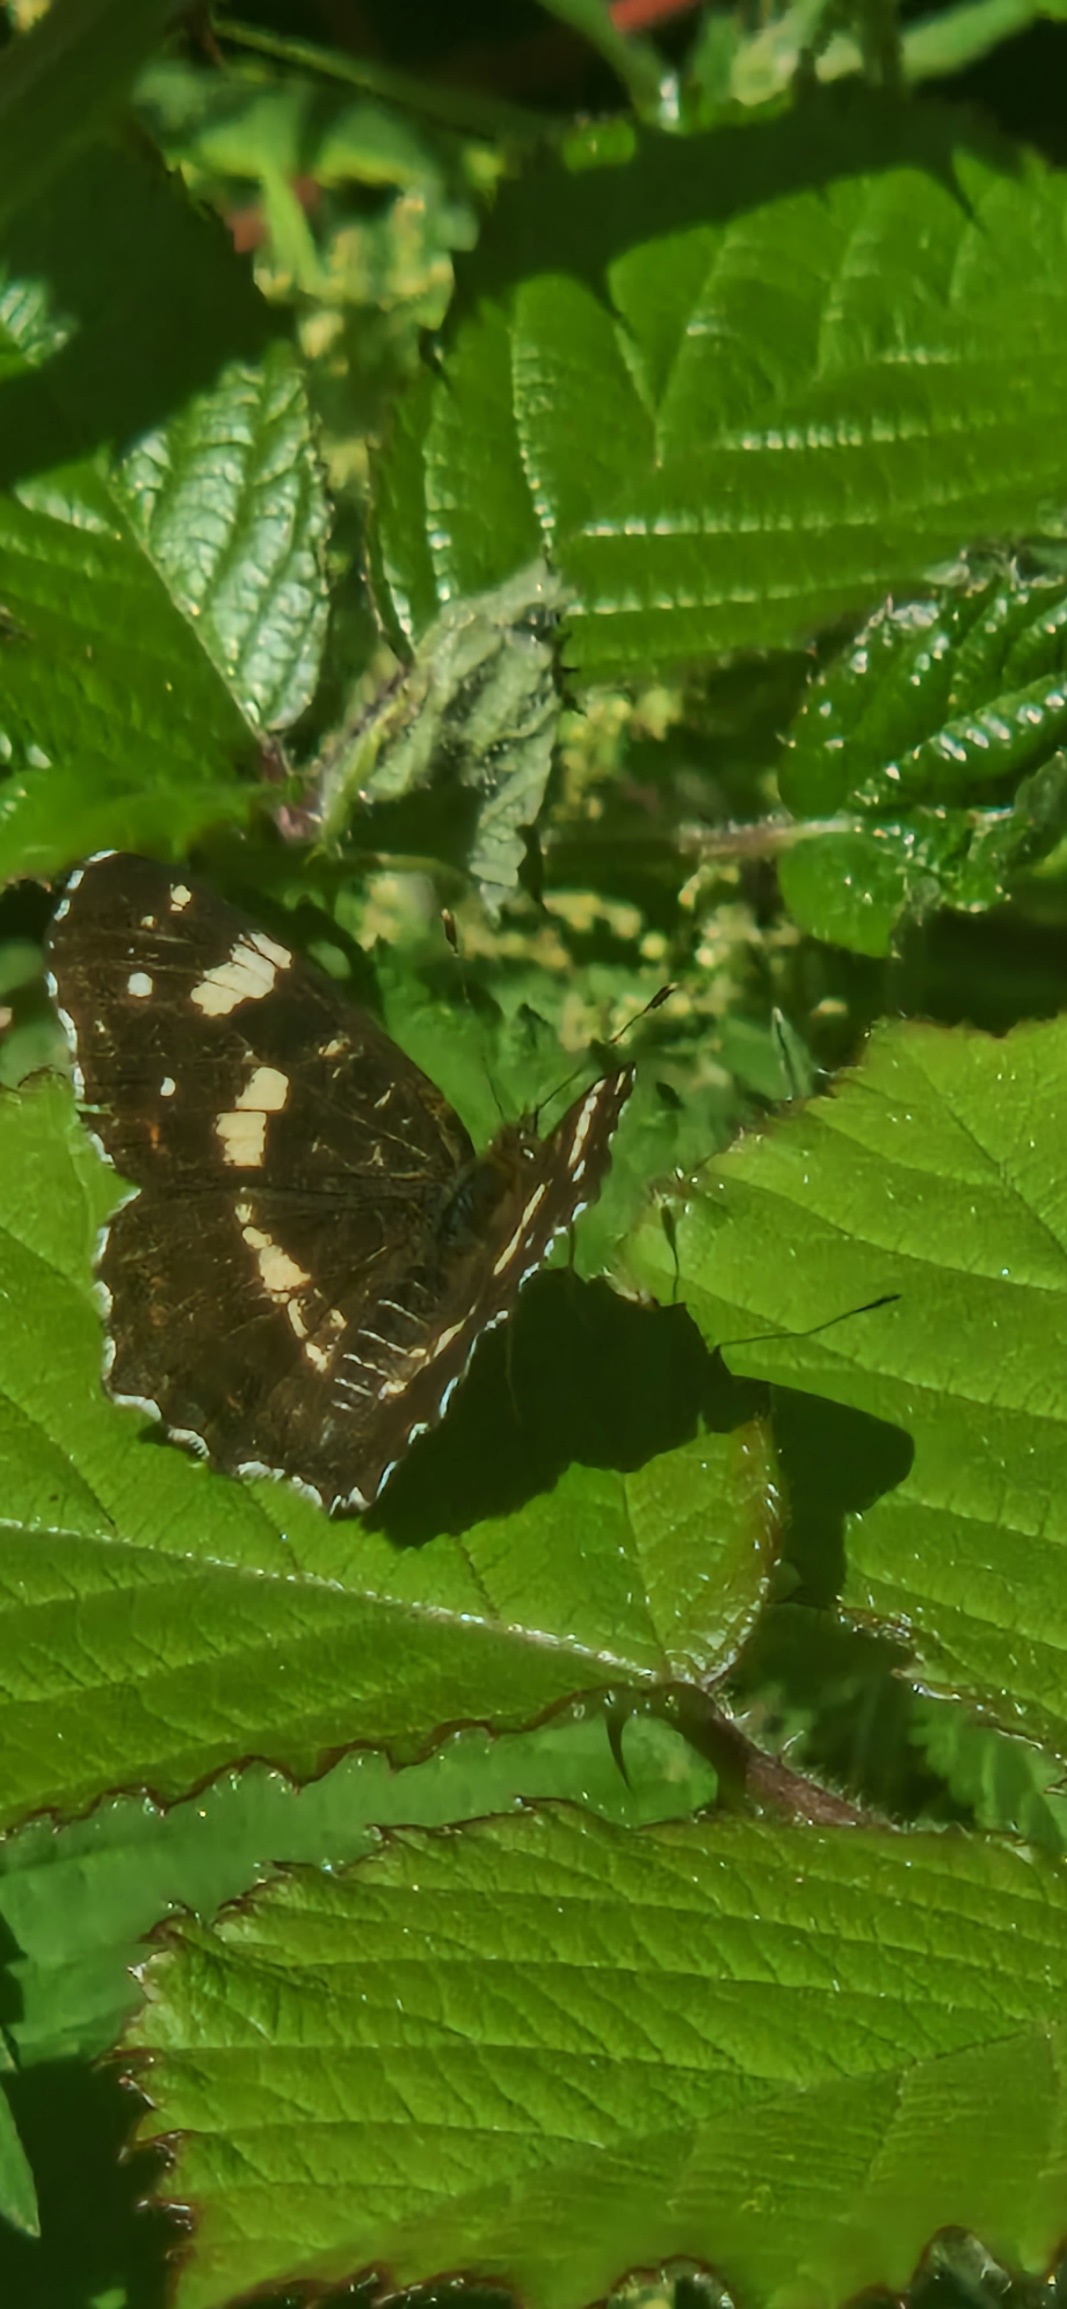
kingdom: Animalia
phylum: Arthropoda
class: Insecta
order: Lepidoptera
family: Nymphalidae
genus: Araschnia
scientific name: Araschnia levana
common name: Nældesommerfugl
